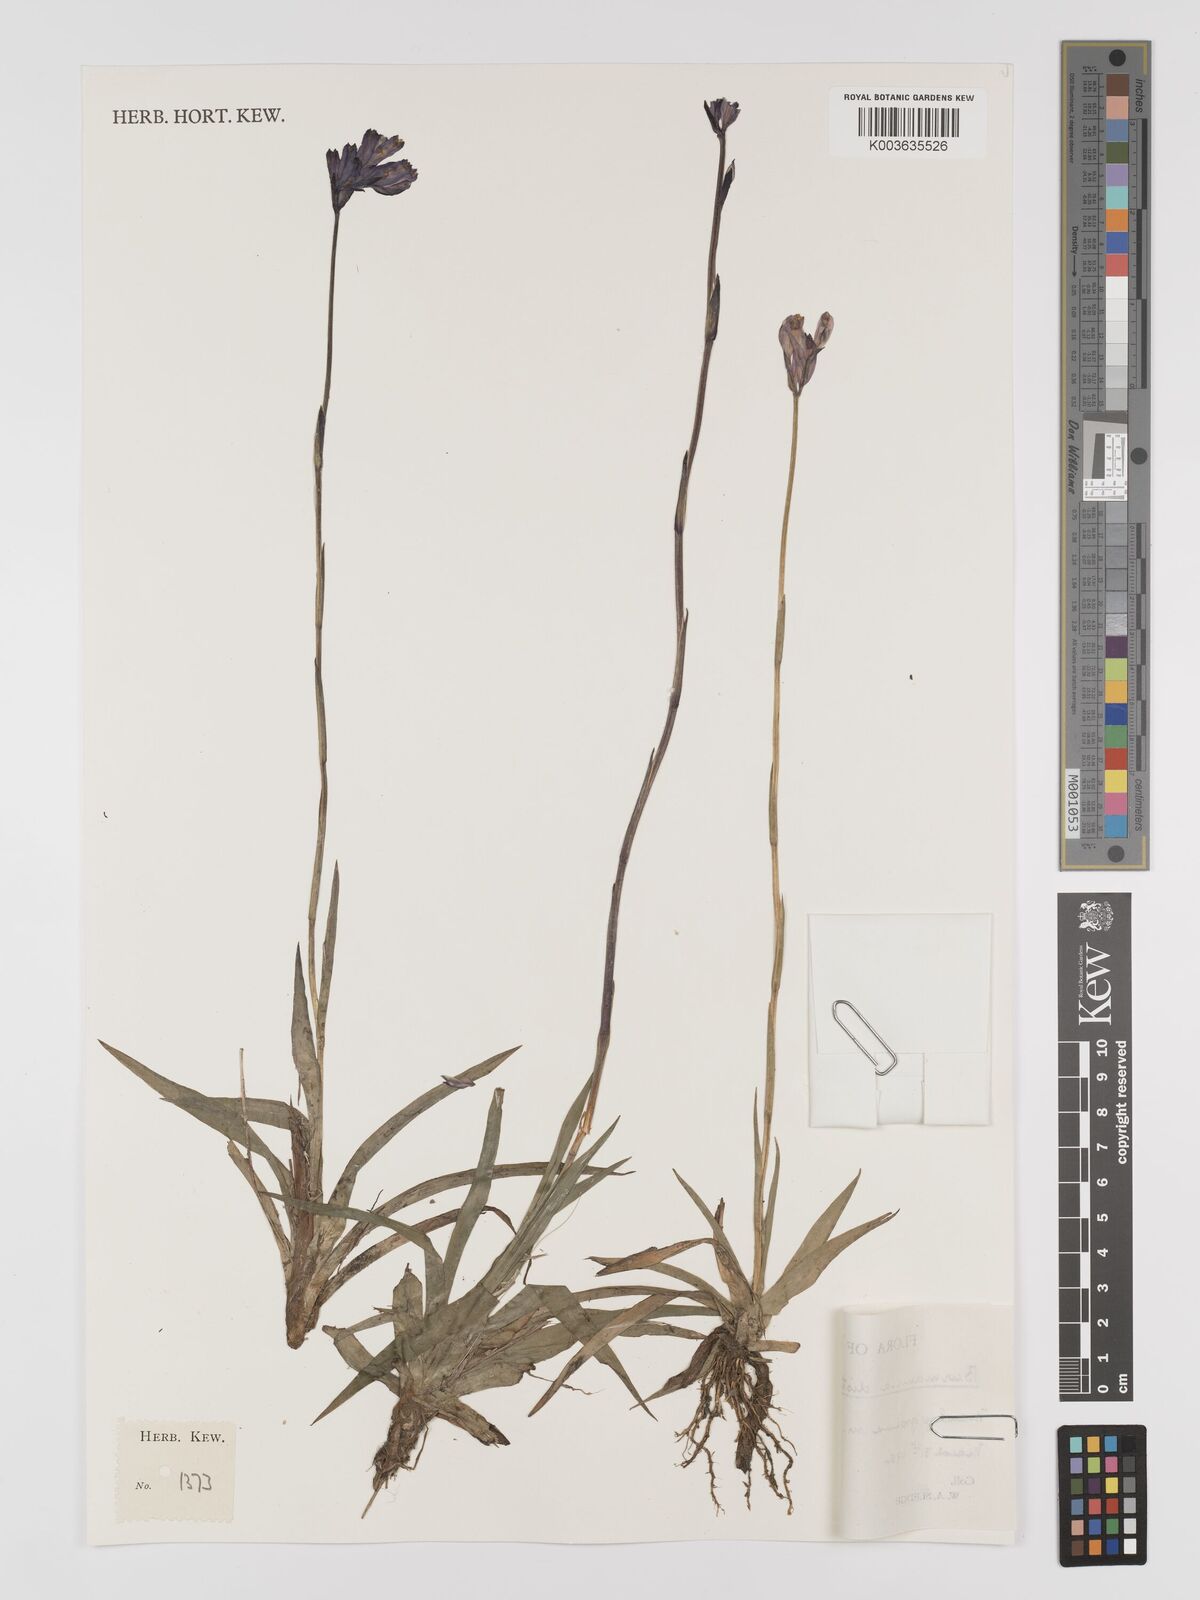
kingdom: Plantae
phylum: Tracheophyta
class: Liliopsida
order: Dioscoreales
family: Burmanniaceae
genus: Burmannia
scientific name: Burmannia disticha
